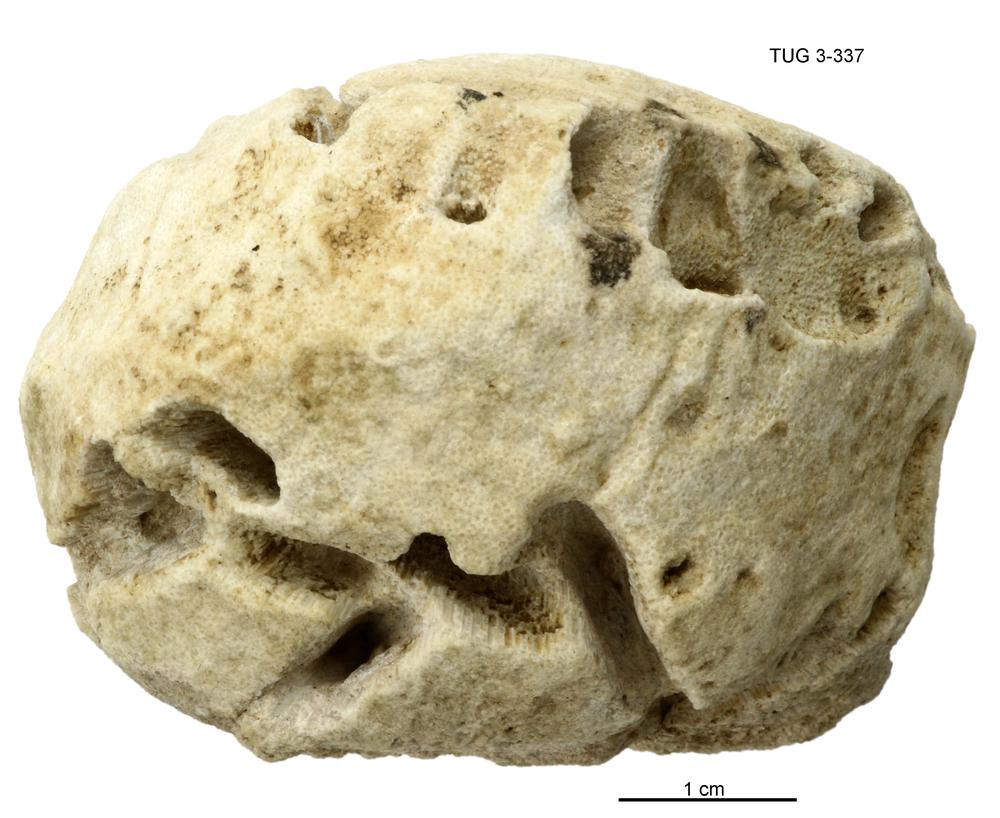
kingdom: Animalia
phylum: Bryozoa
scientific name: Bryozoa
